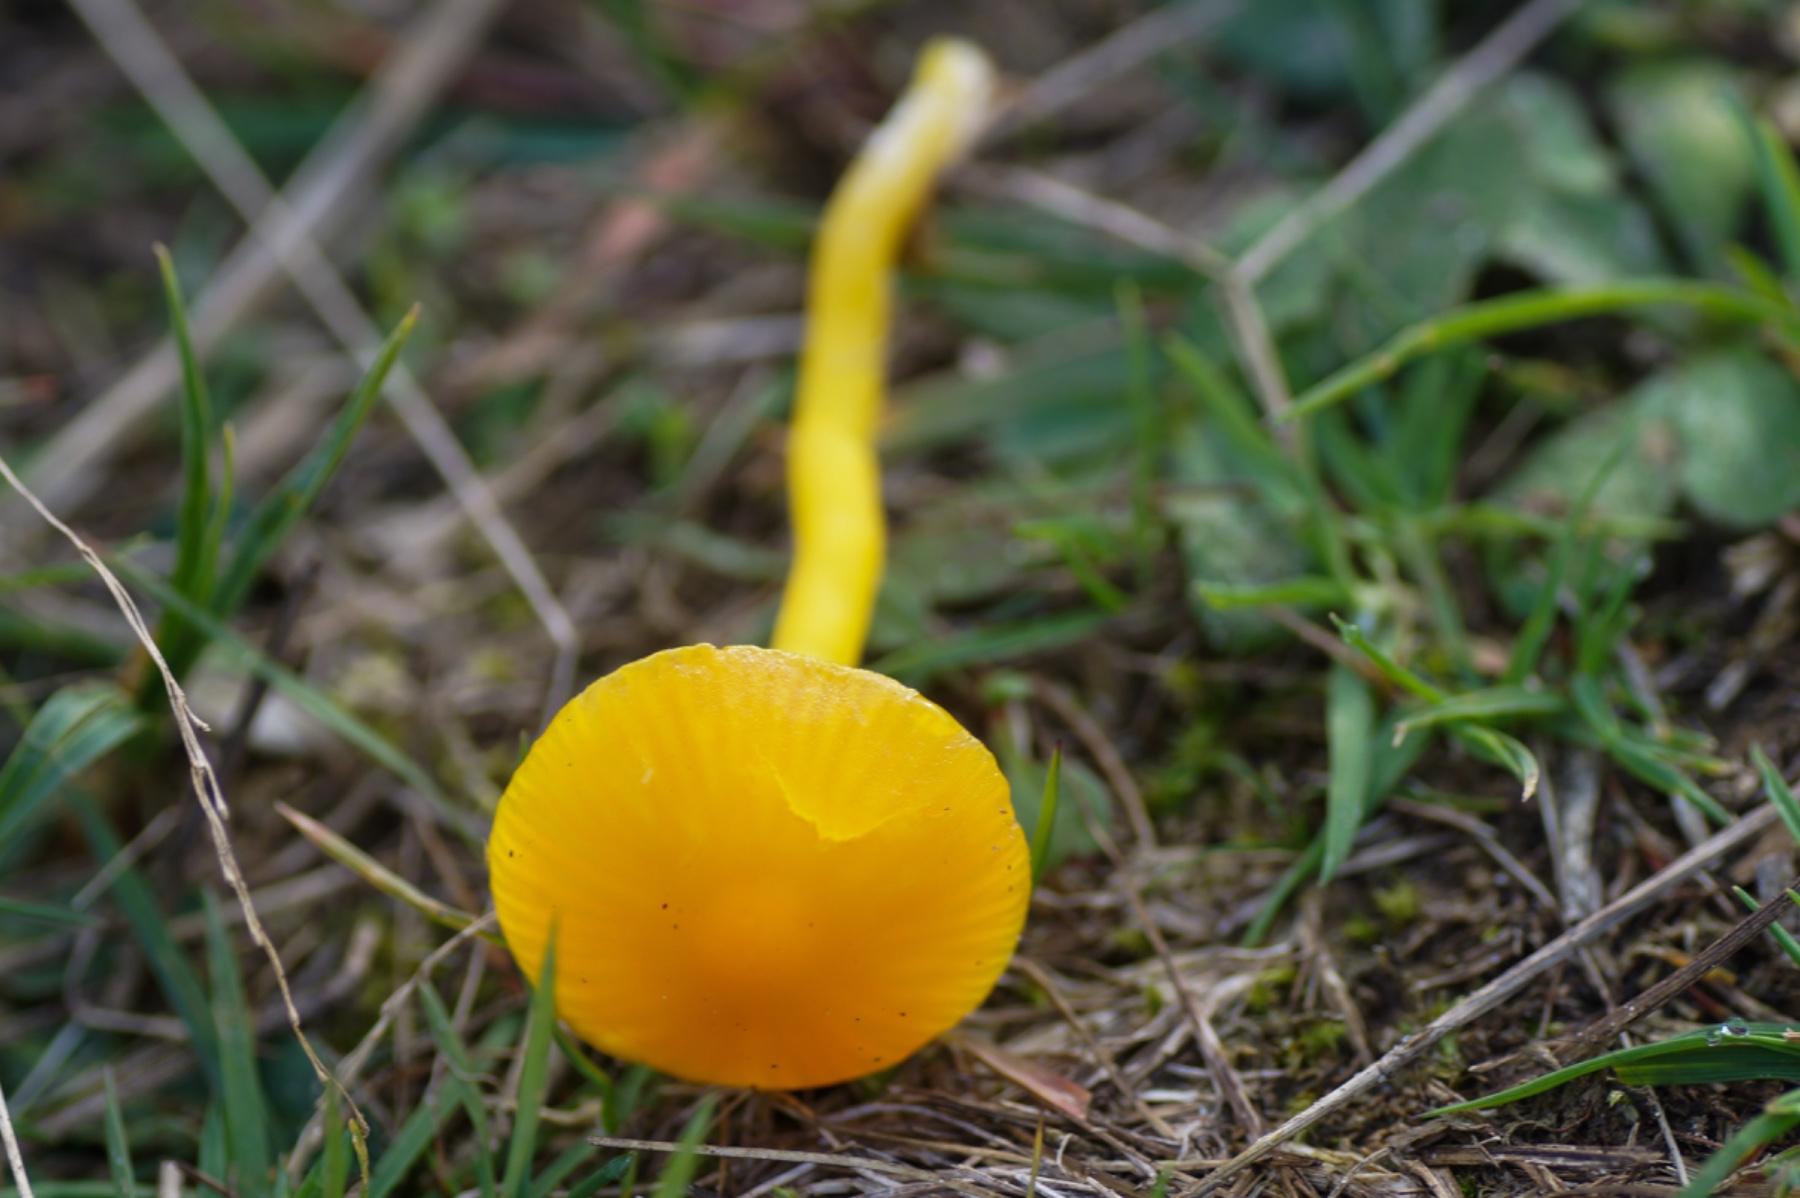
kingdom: Fungi
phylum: Basidiomycota
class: Agaricomycetes
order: Agaricales
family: Hygrophoraceae
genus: Hygrocybe
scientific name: Hygrocybe ceracea
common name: voksgul vokshat
